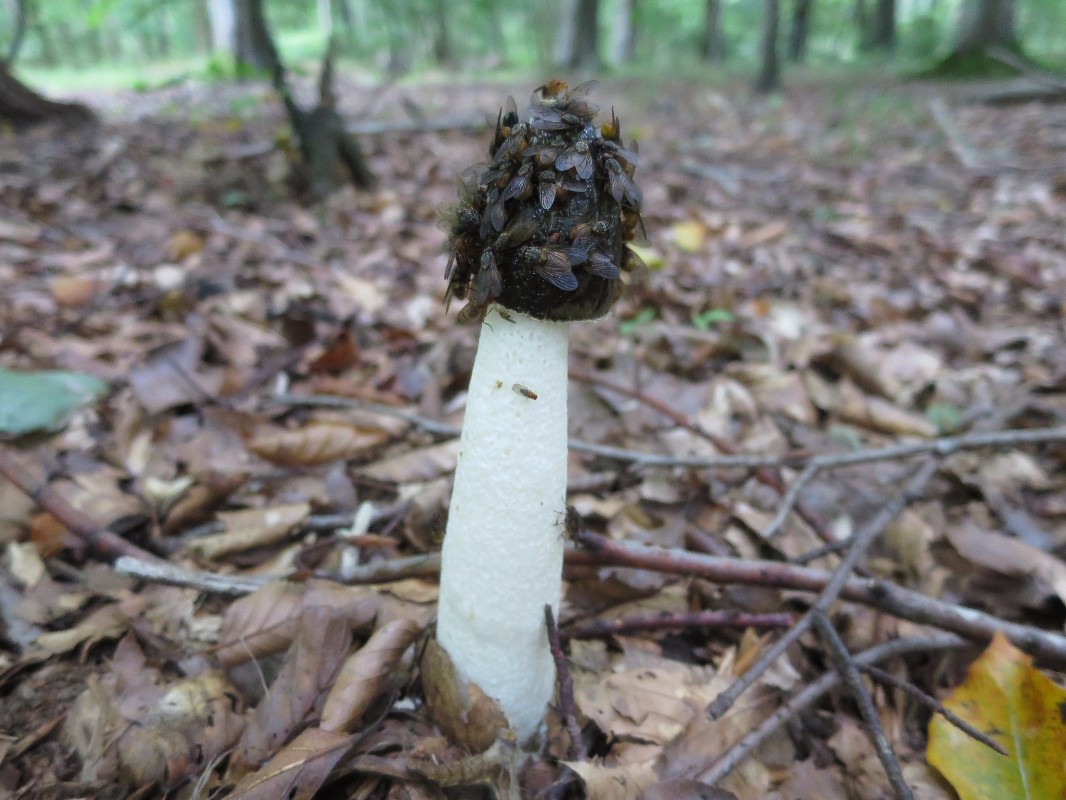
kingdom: Fungi
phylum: Basidiomycota
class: Agaricomycetes
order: Phallales
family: Phallaceae
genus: Phallus
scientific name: Phallus impudicus
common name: almindelig stinksvamp
